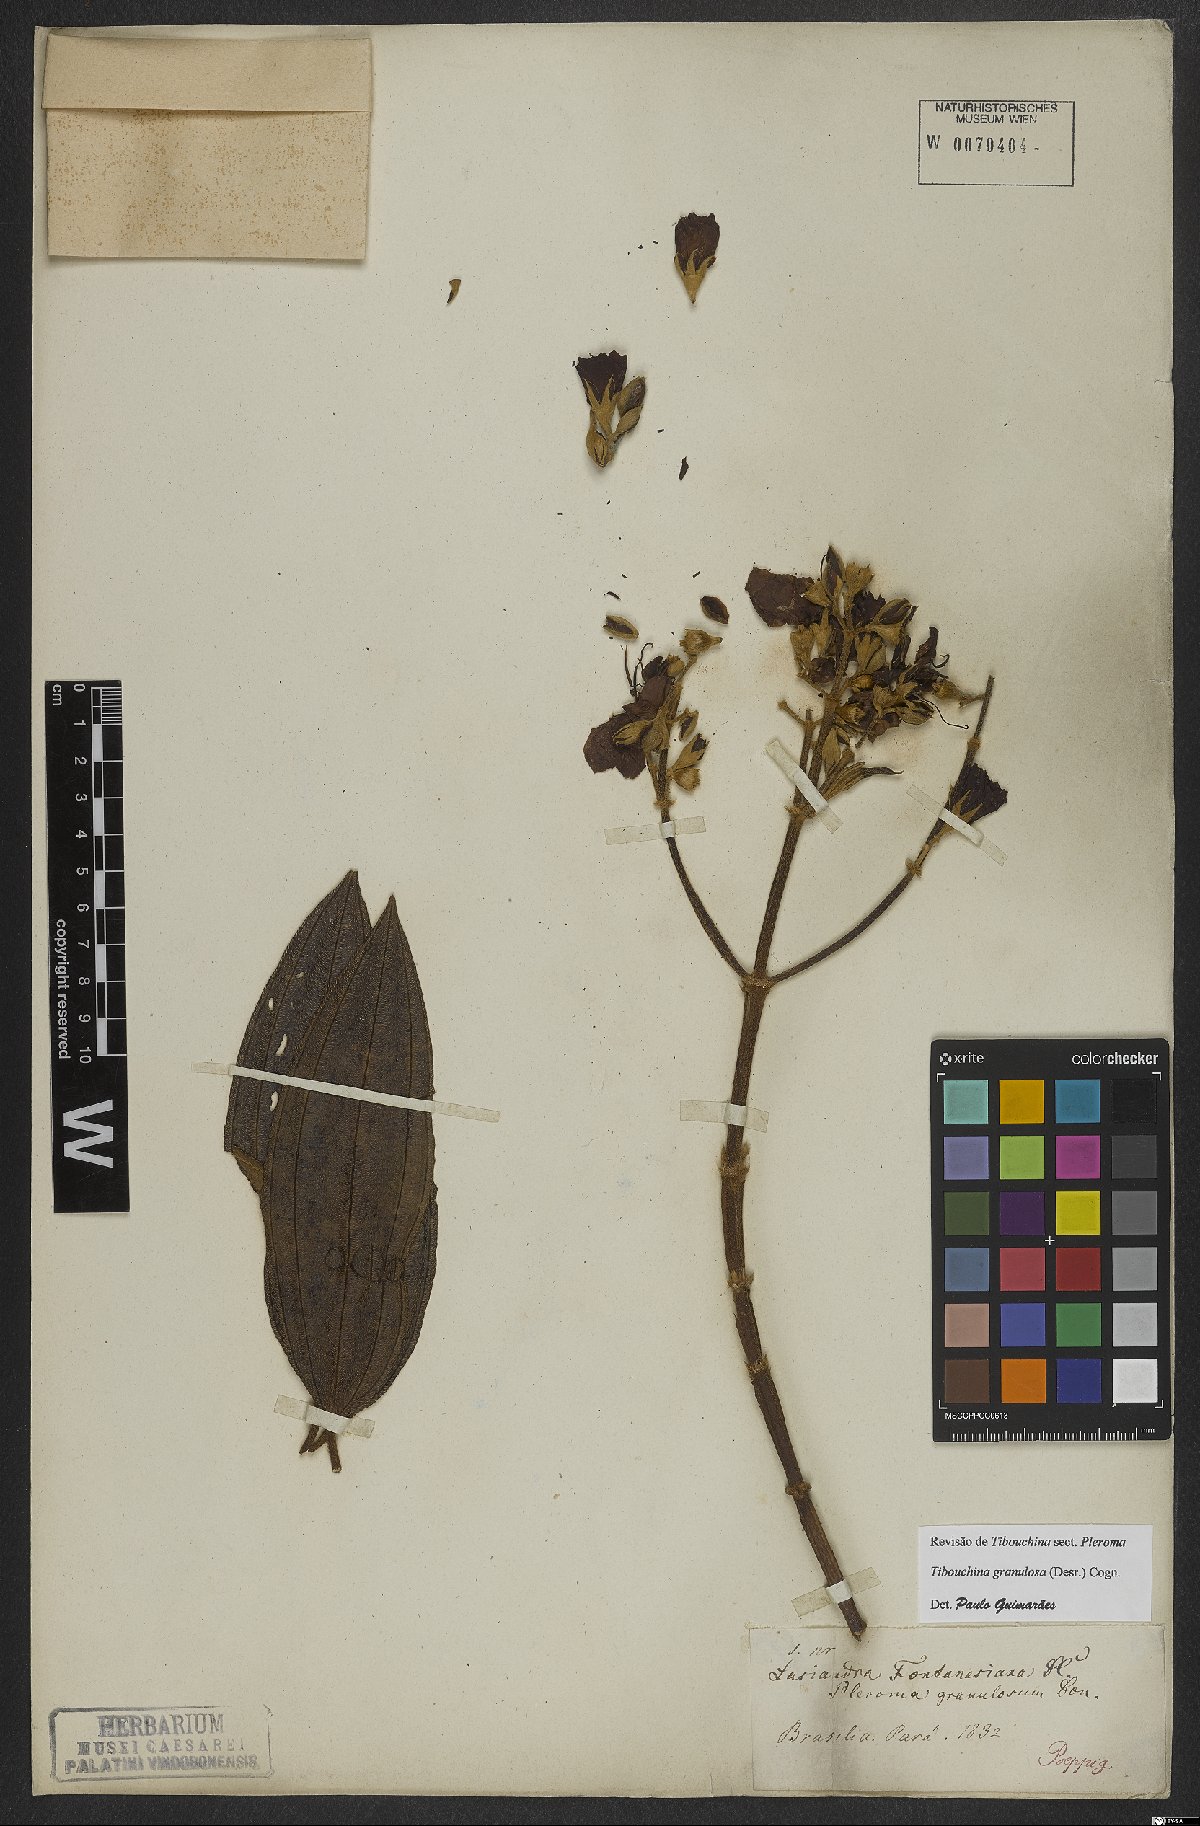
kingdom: Plantae
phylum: Tracheophyta
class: Magnoliopsida
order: Myrtales
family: Melastomataceae
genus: Pleroma
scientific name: Pleroma granulosum
